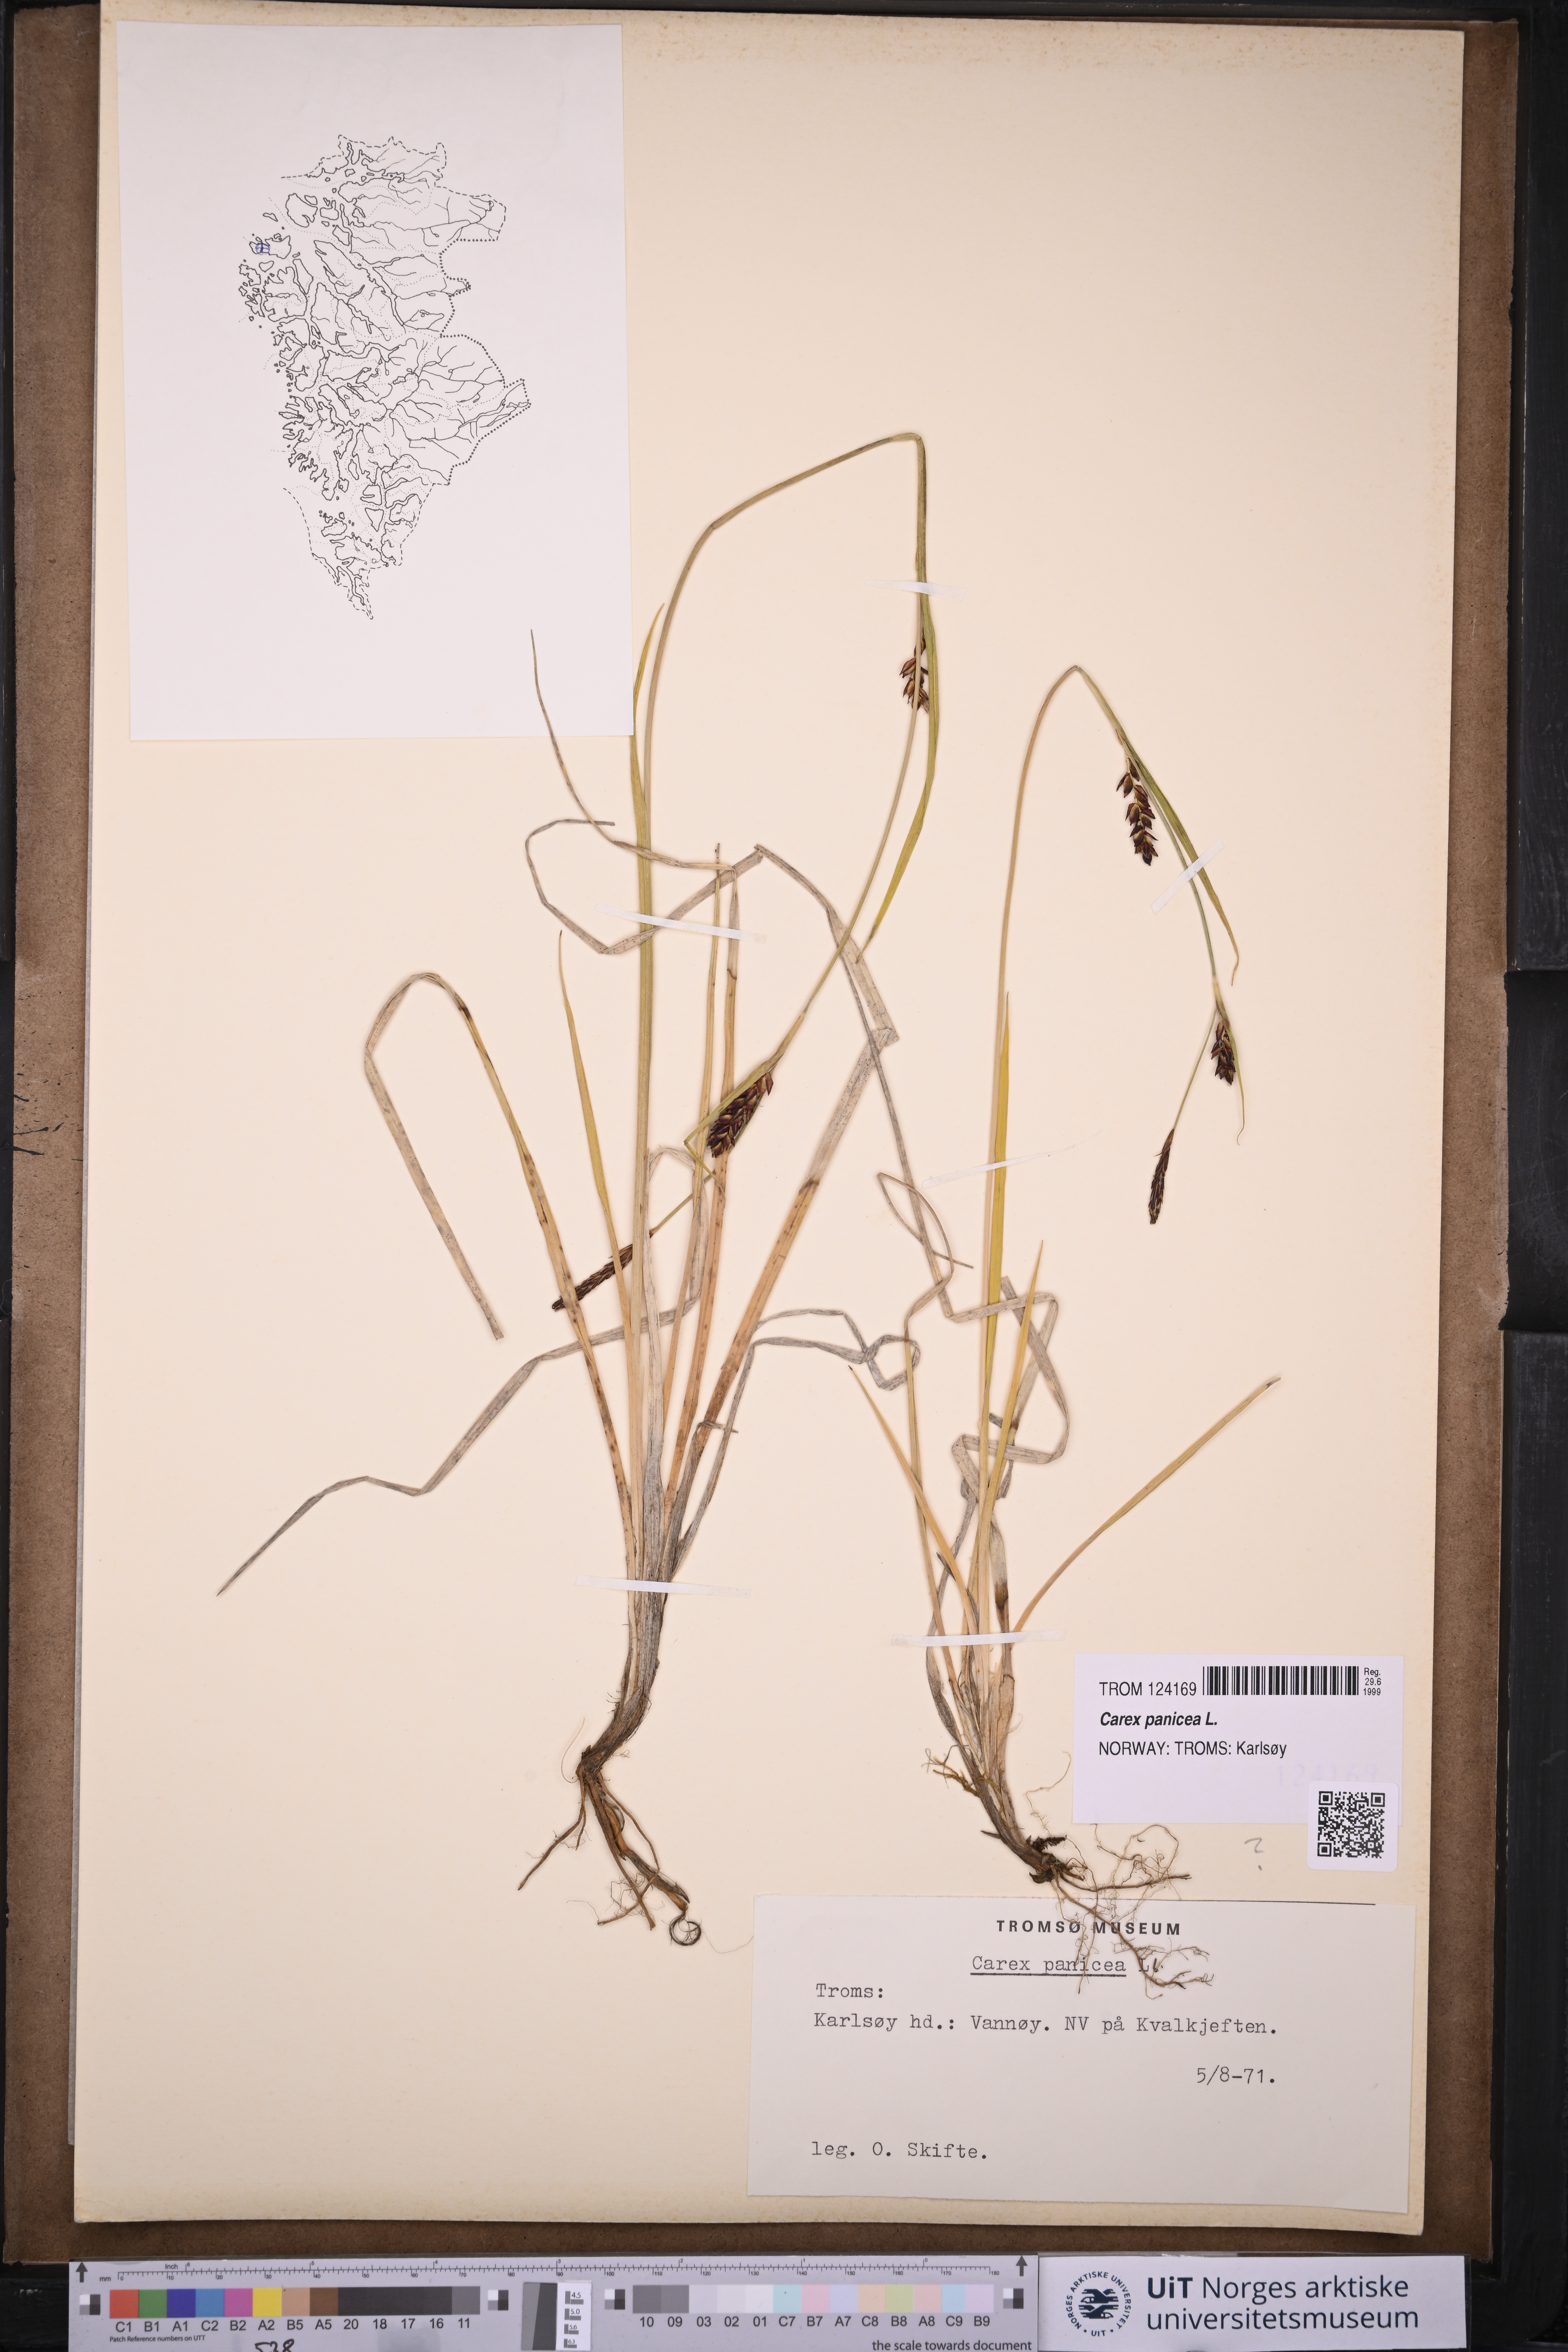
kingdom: Plantae
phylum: Tracheophyta
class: Liliopsida
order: Poales
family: Cyperaceae
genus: Carex
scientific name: Carex panicea
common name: Carnation sedge
